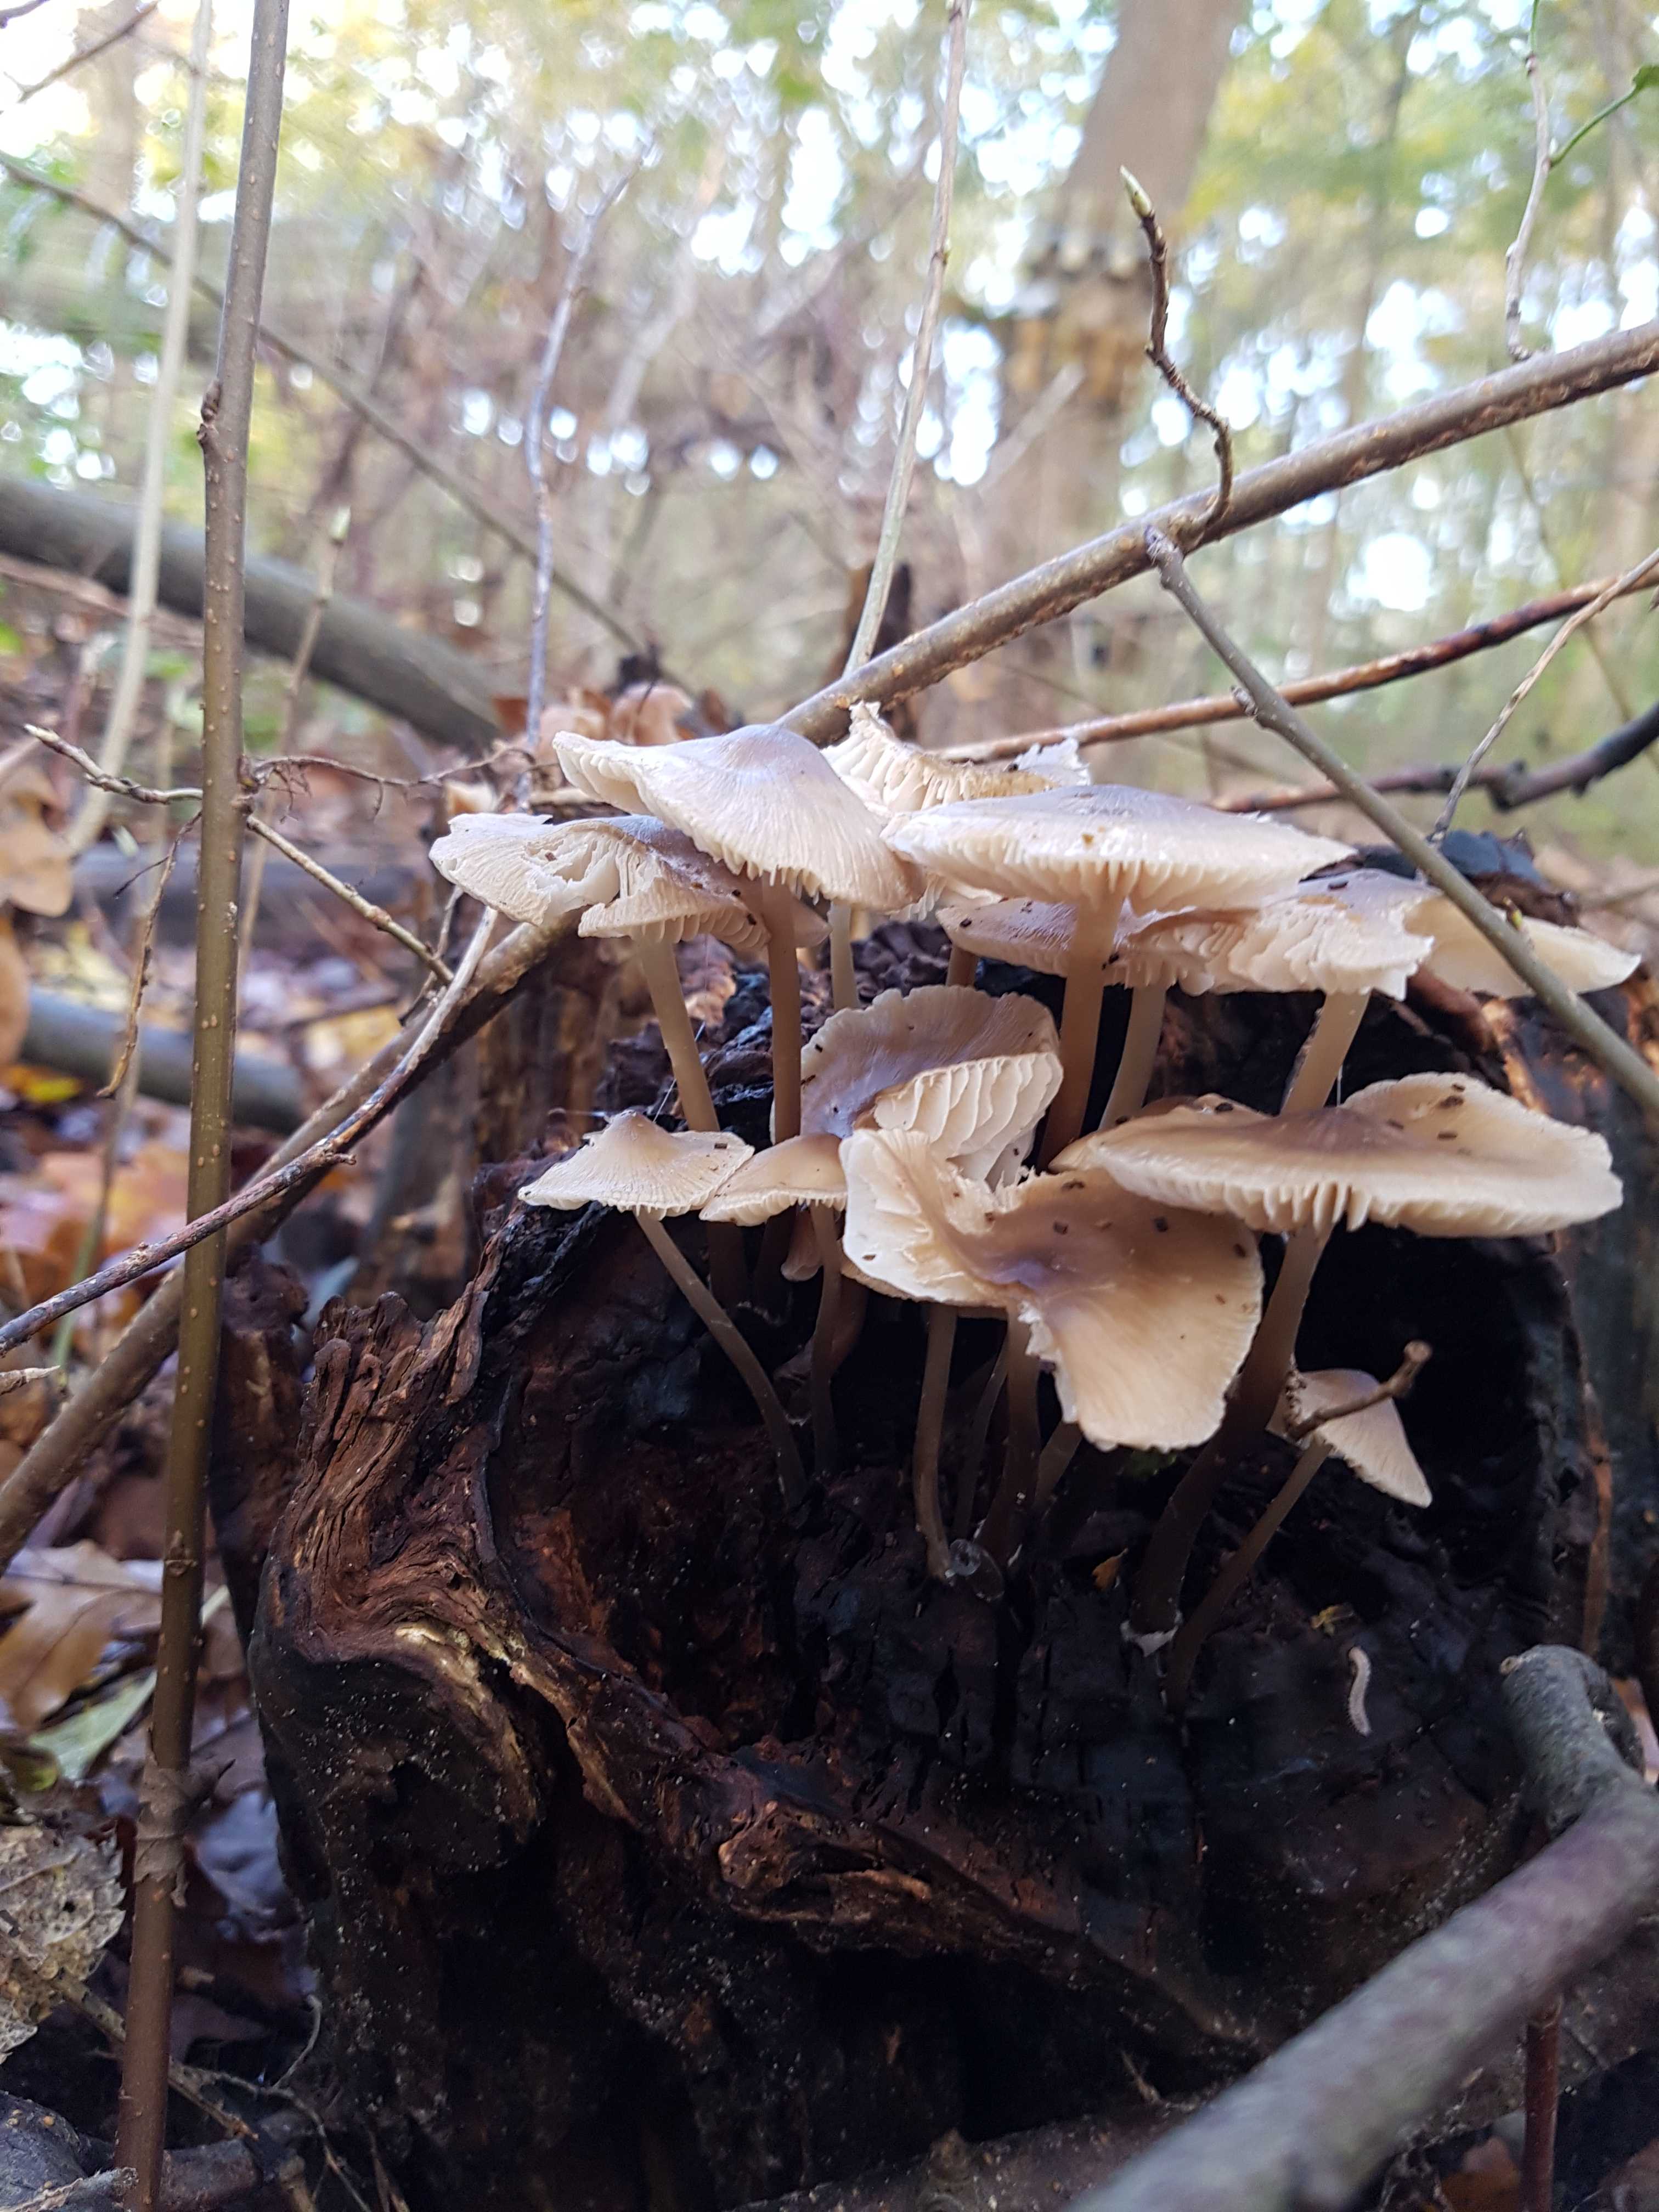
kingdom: Fungi
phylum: Basidiomycota
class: Agaricomycetes
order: Agaricales
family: Mycenaceae
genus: Mycena
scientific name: Mycena galericulata
